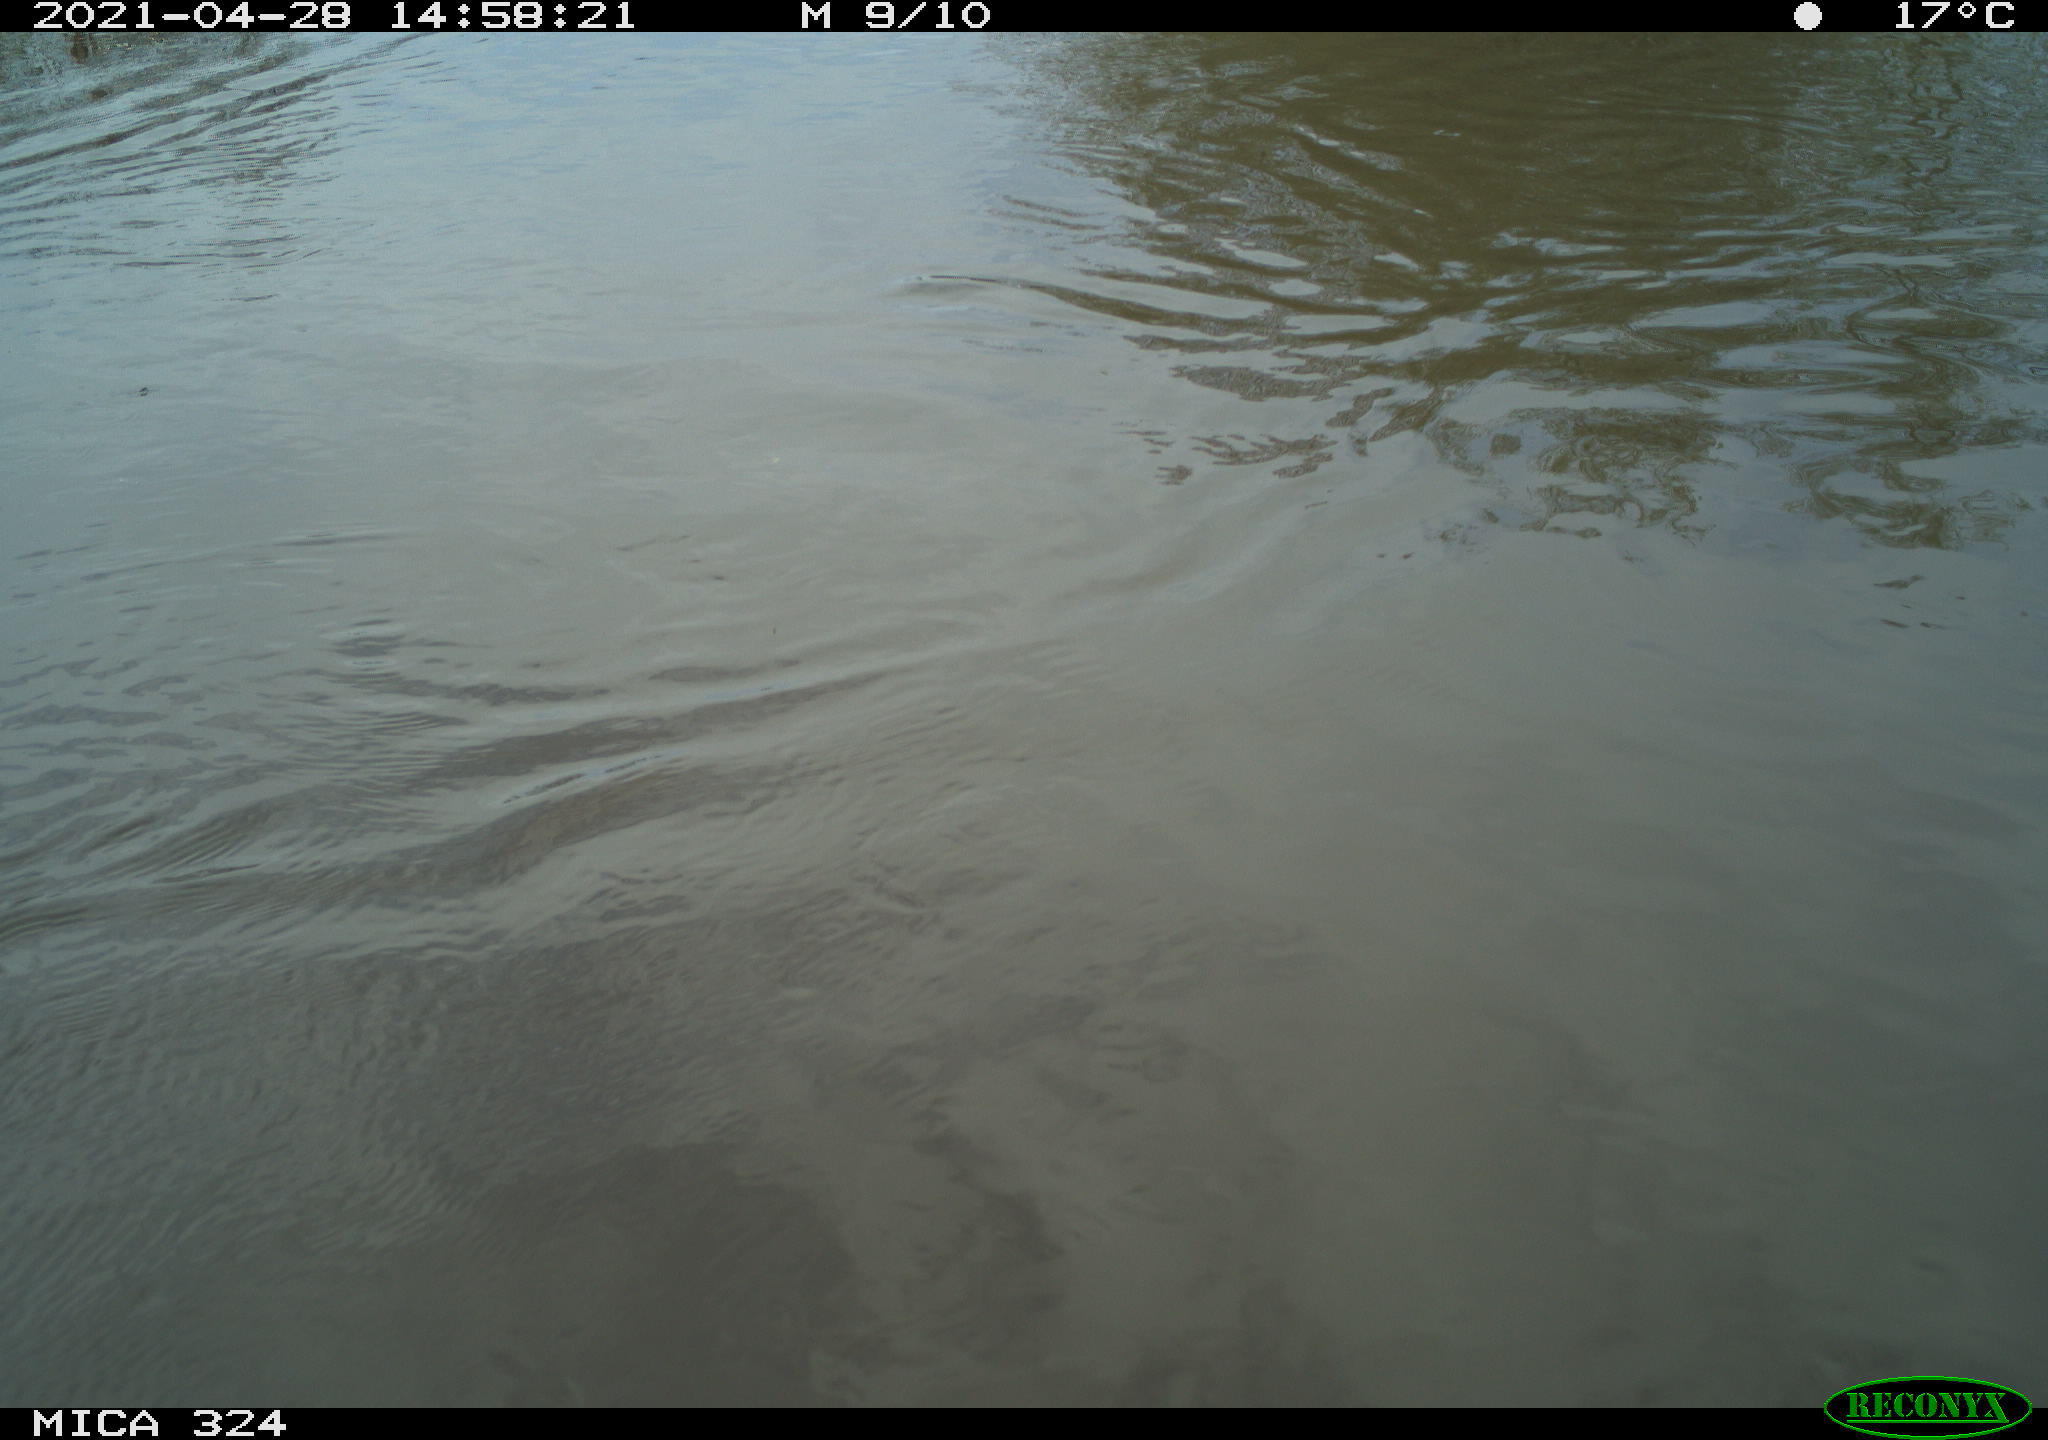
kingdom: Animalia
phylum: Chordata
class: Aves
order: Gruiformes
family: Rallidae
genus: Gallinula
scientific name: Gallinula chloropus
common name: Common moorhen
